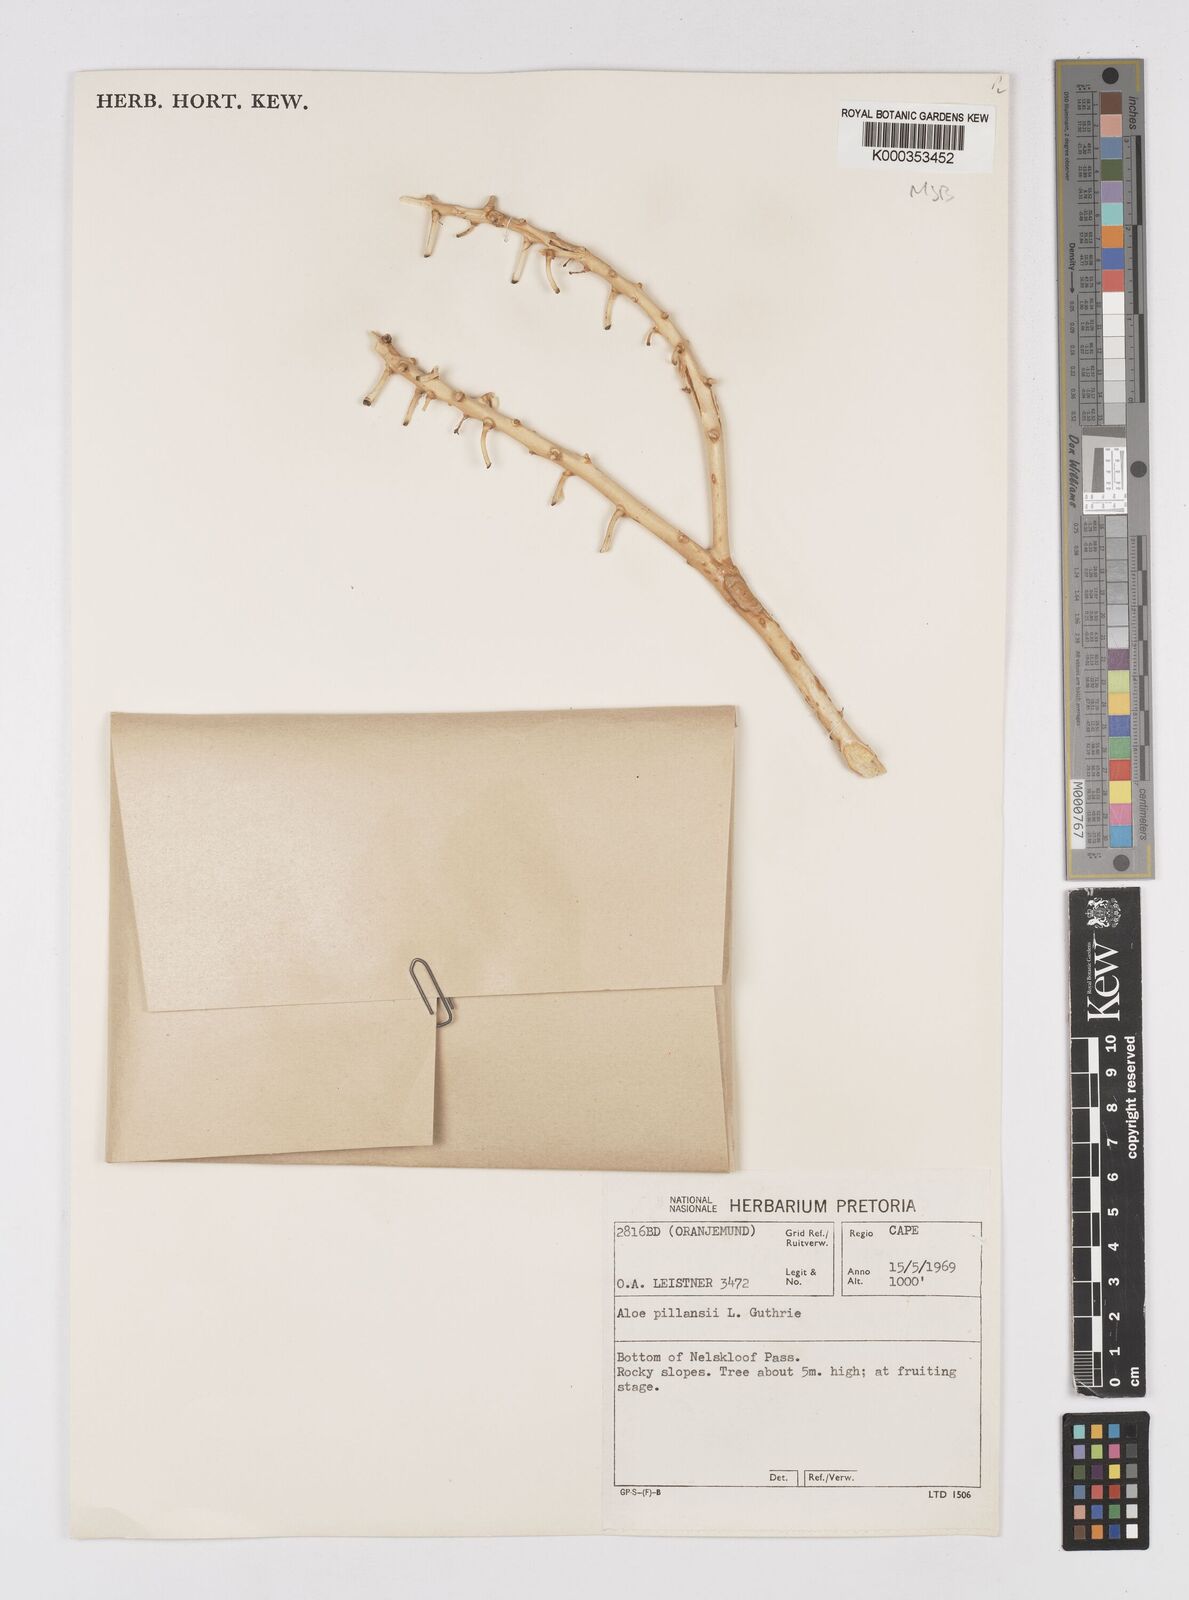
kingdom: Plantae
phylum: Tracheophyta
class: Liliopsida
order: Asparagales
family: Asphodelaceae
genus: Aloidendron
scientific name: Aloidendron pillansii
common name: Bastard quiver tree
